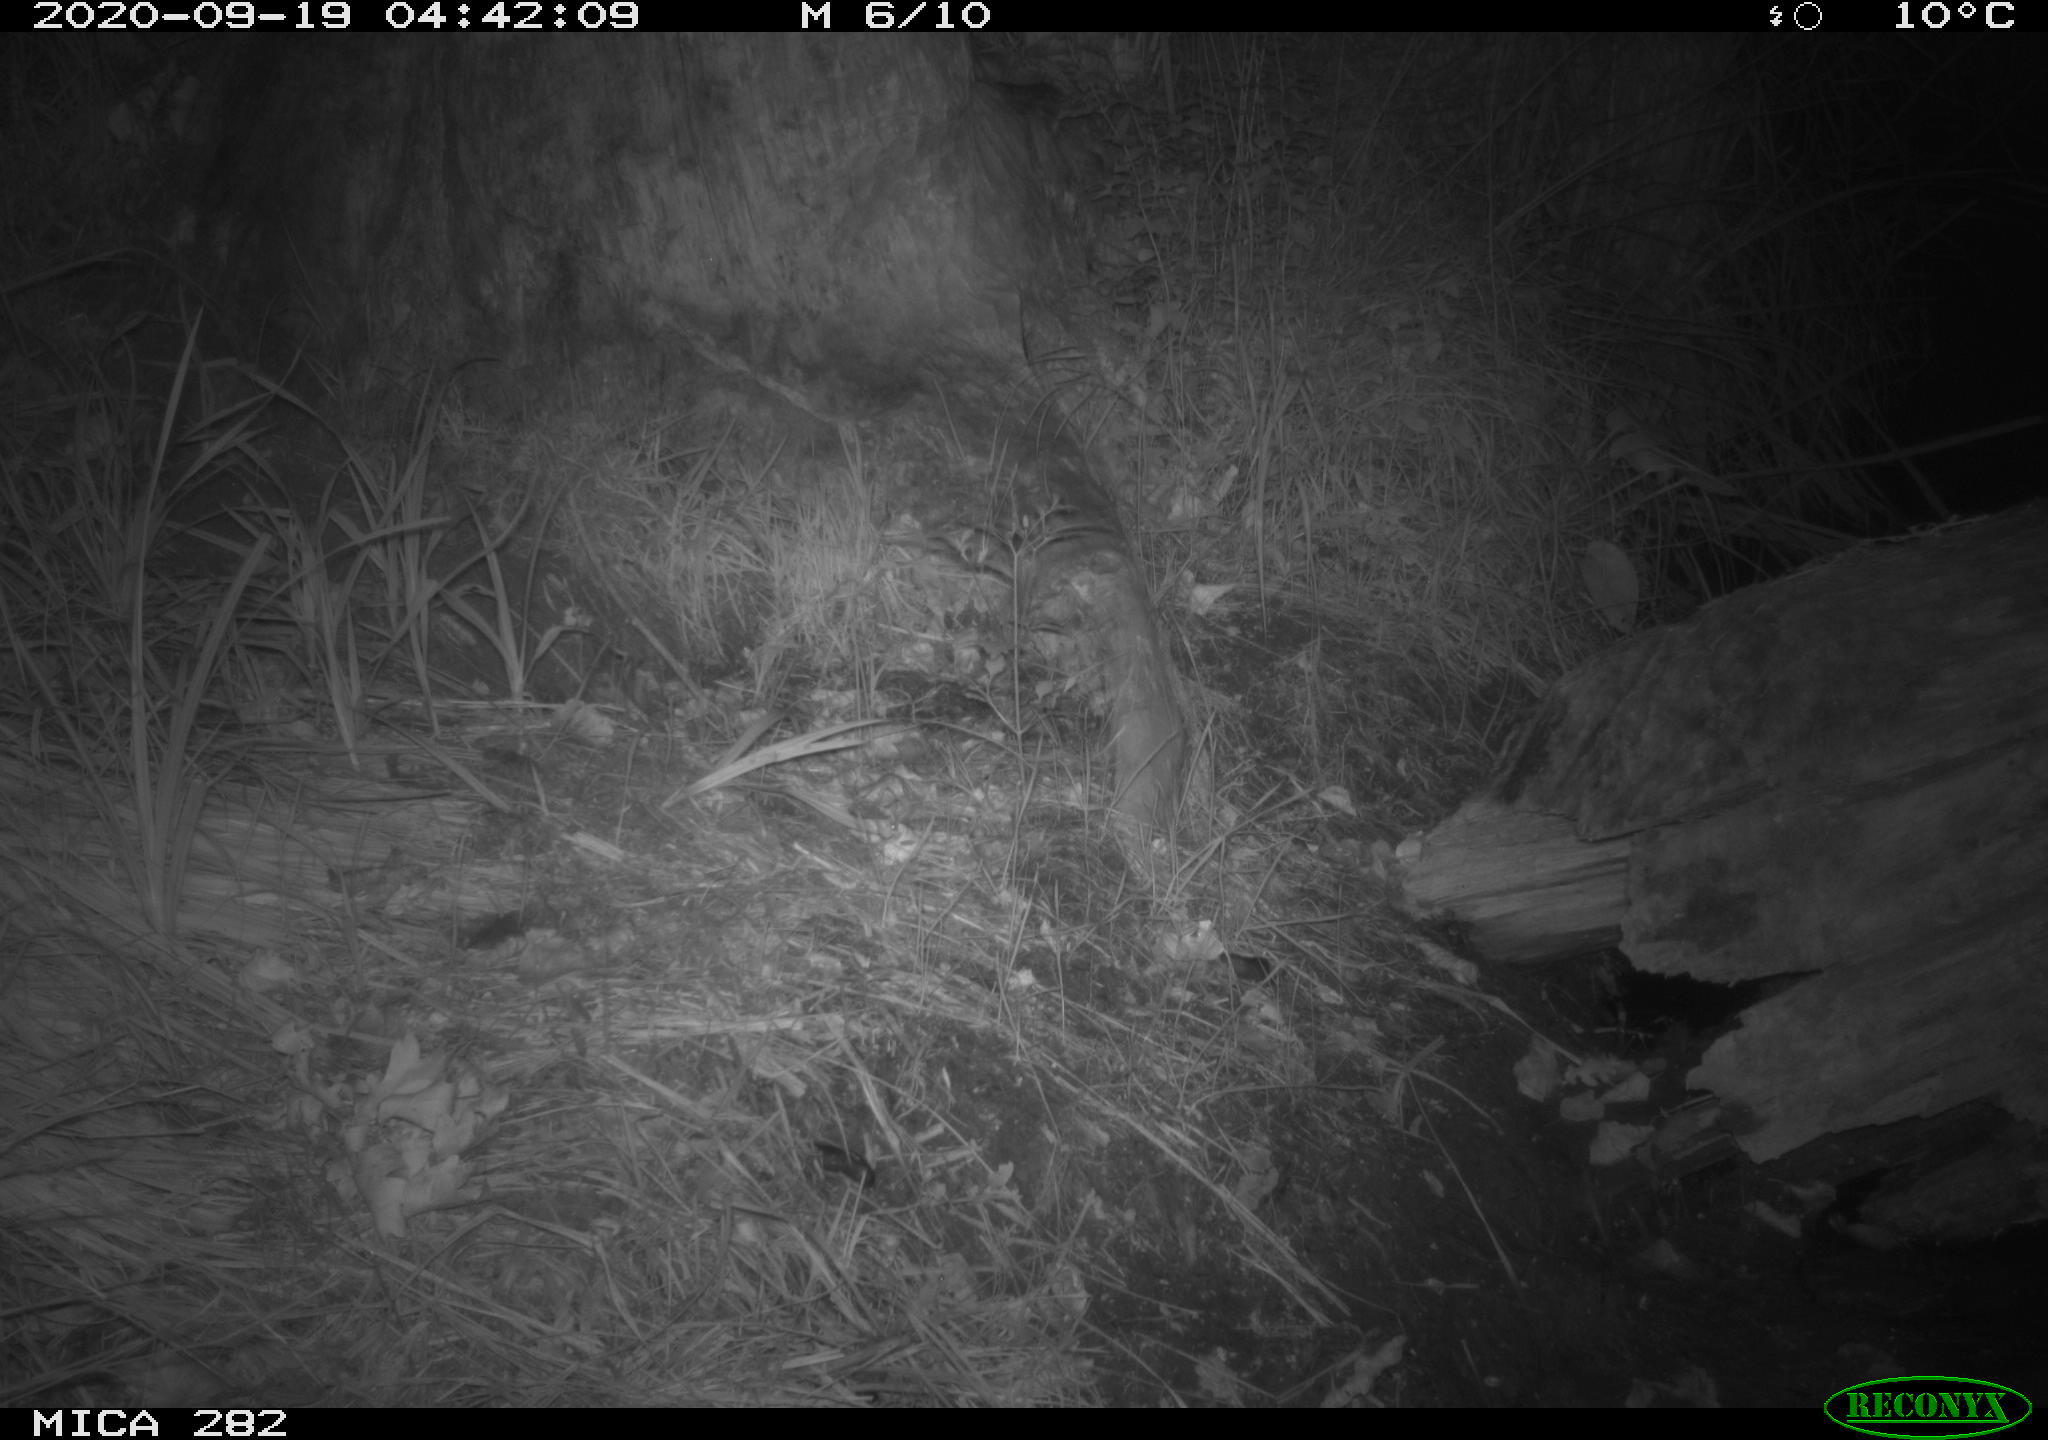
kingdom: Animalia
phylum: Chordata
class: Mammalia
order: Soricomorpha
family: Soricidae
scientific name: Soricidae
